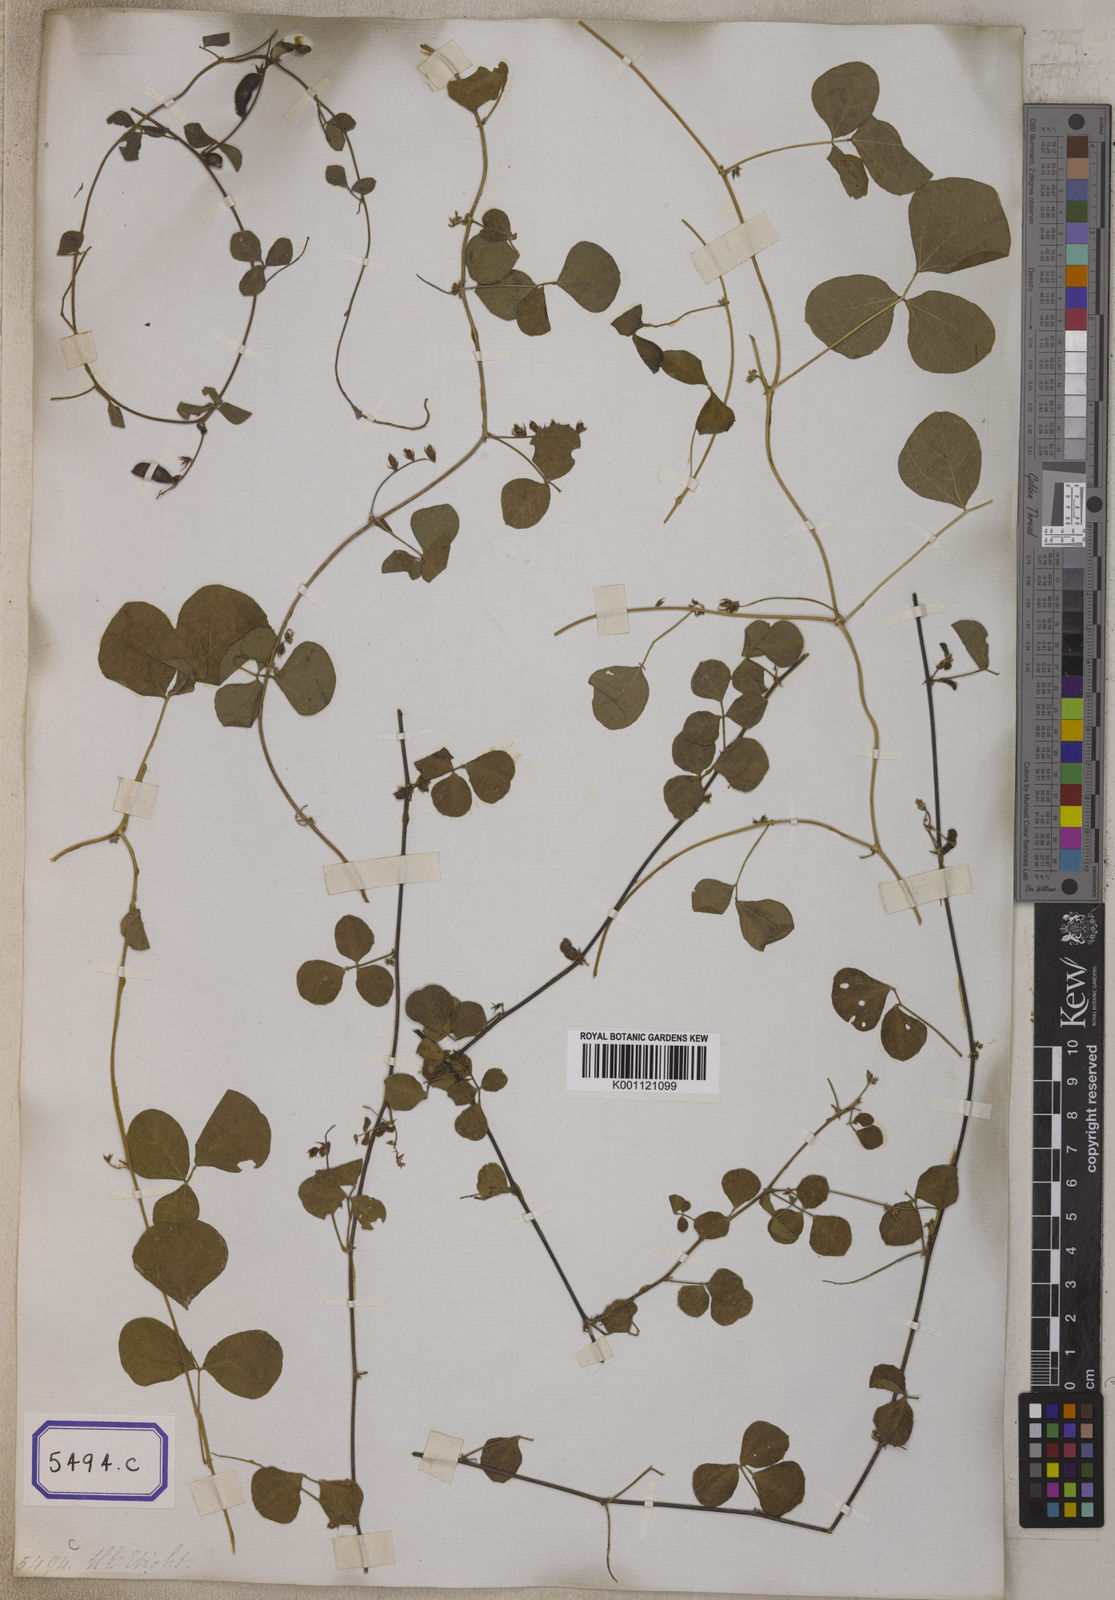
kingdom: Plantae
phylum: Tracheophyta
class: Magnoliopsida
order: Fabales
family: Fabaceae
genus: Rhynchosia
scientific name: Rhynchosia minima
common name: Least snoutbean
